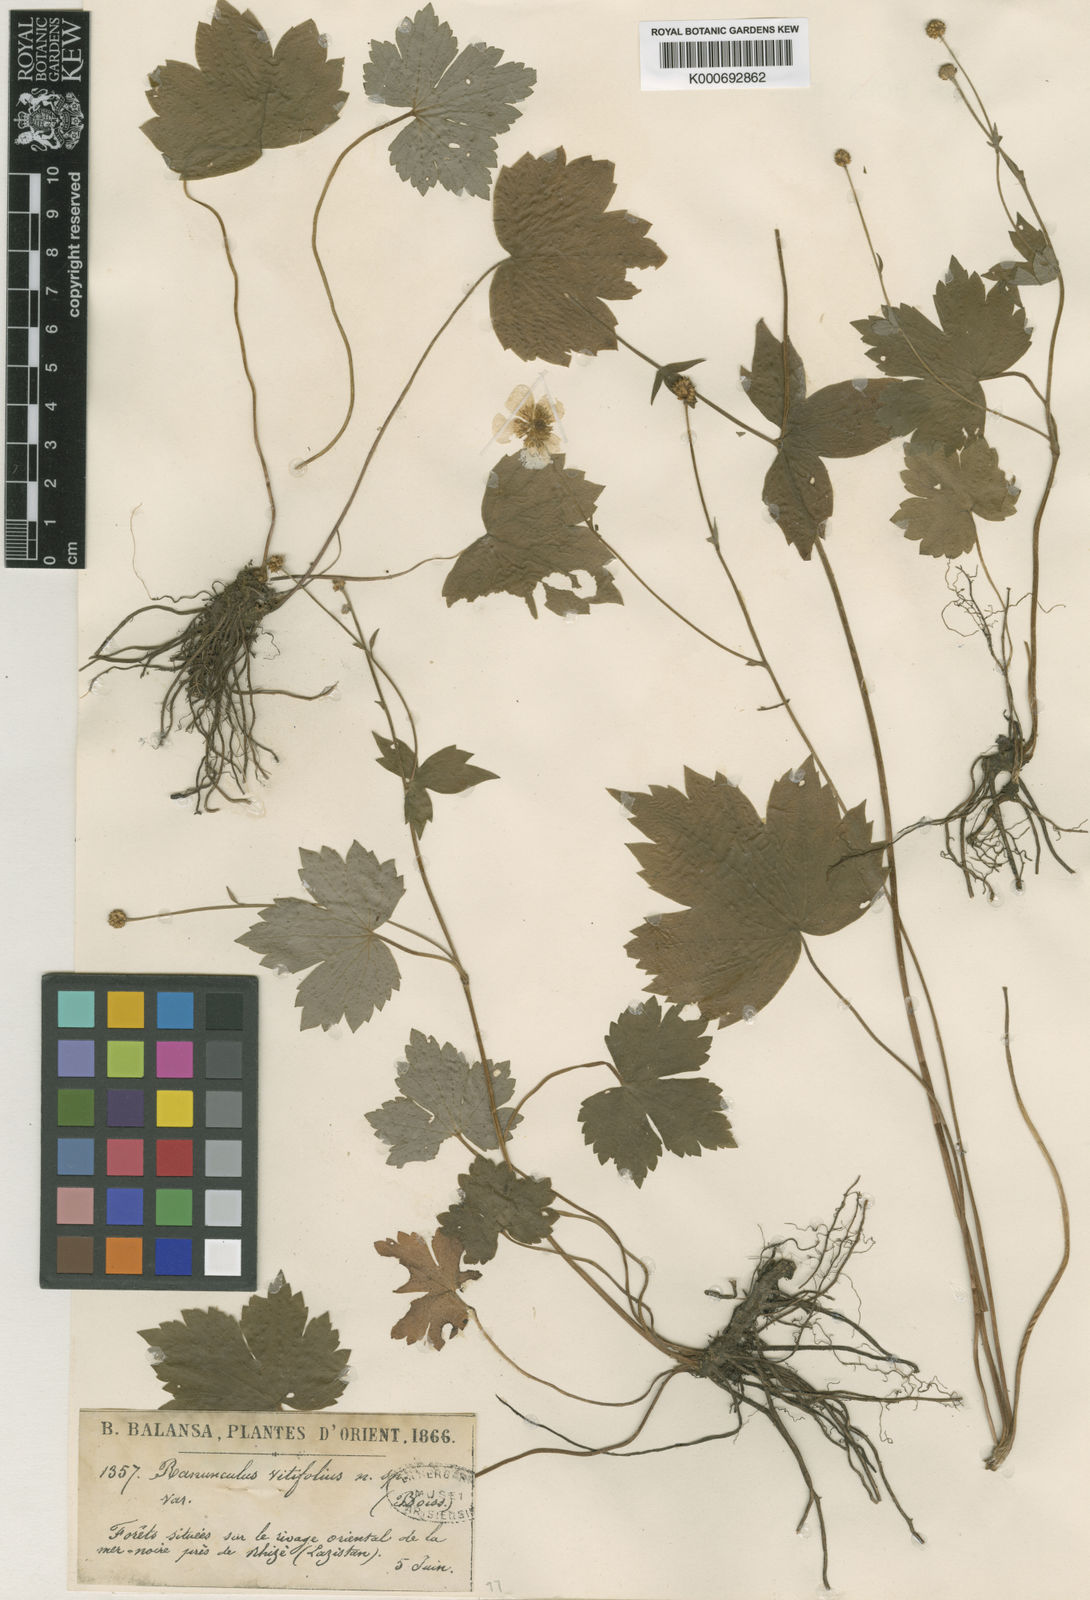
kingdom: Plantae
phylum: Tracheophyta
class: Magnoliopsida
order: Ranunculales
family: Ranunculaceae
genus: Ranunculus
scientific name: Ranunculus cappadocicus
